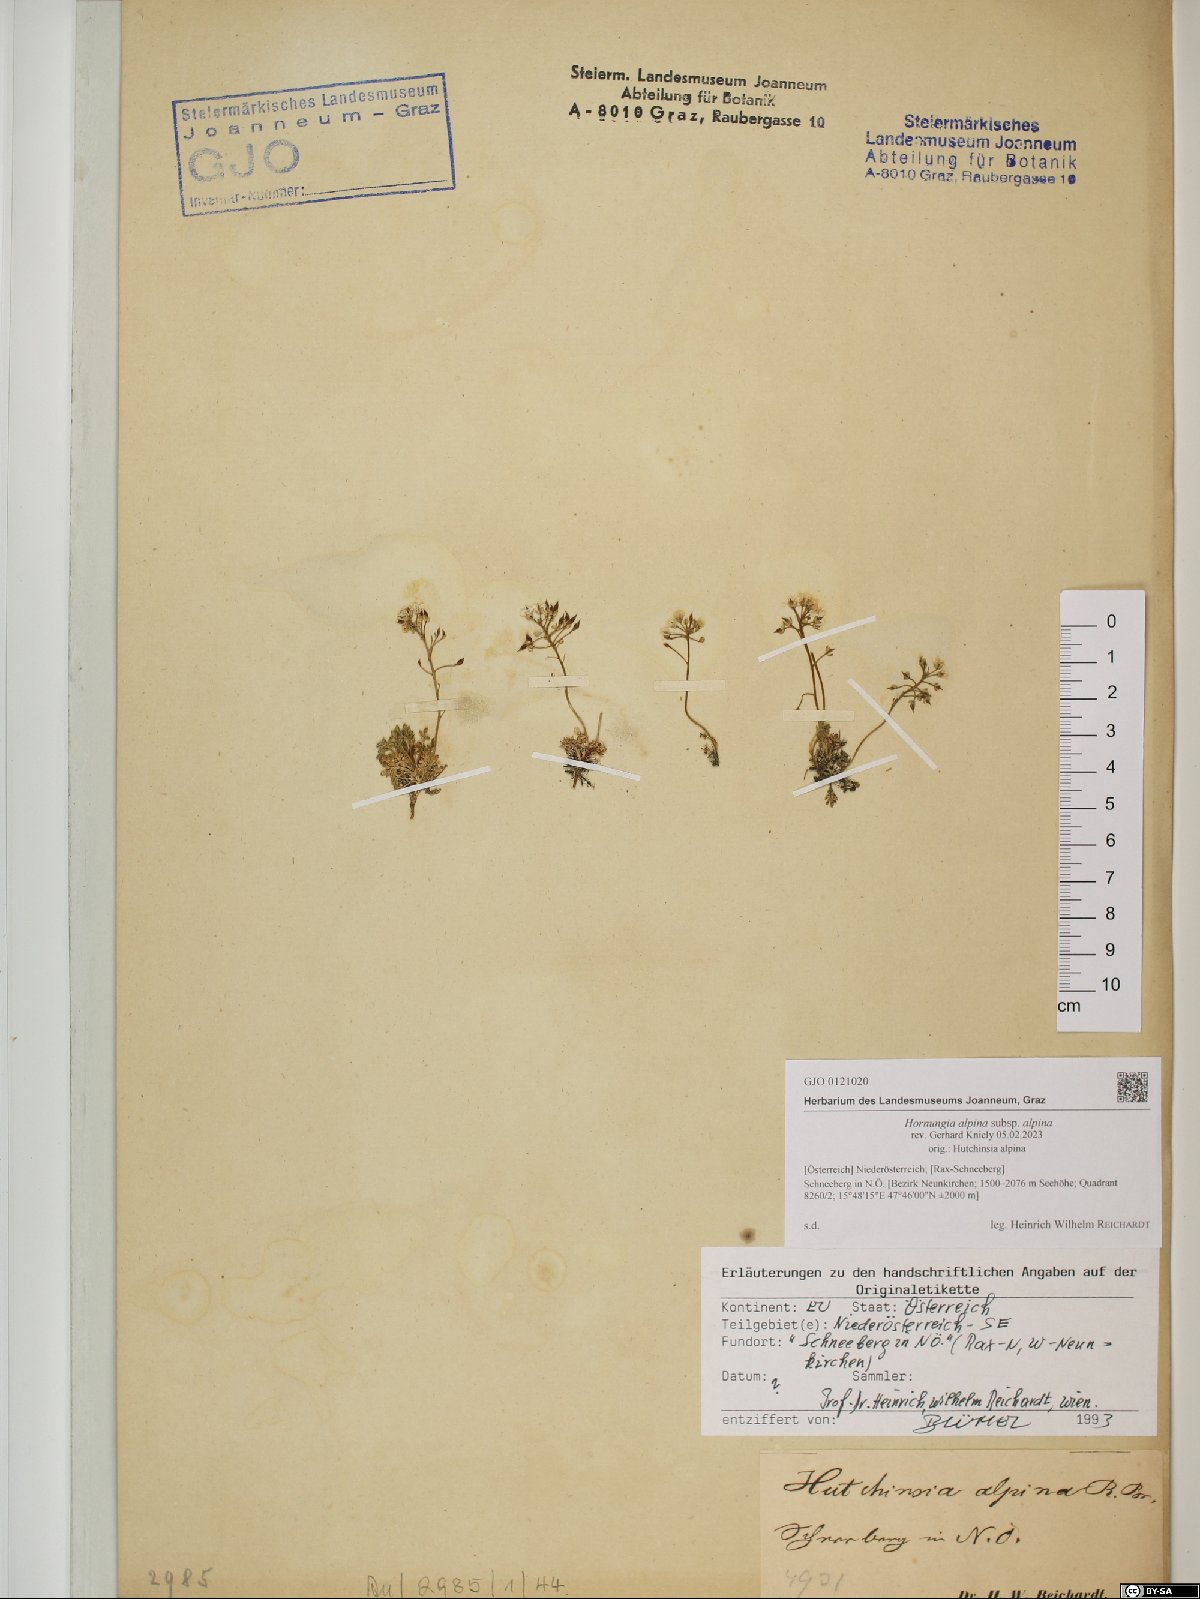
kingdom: Plantae
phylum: Tracheophyta
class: Magnoliopsida
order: Brassicales
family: Brassicaceae
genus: Hornungia
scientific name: Hornungia alpina
